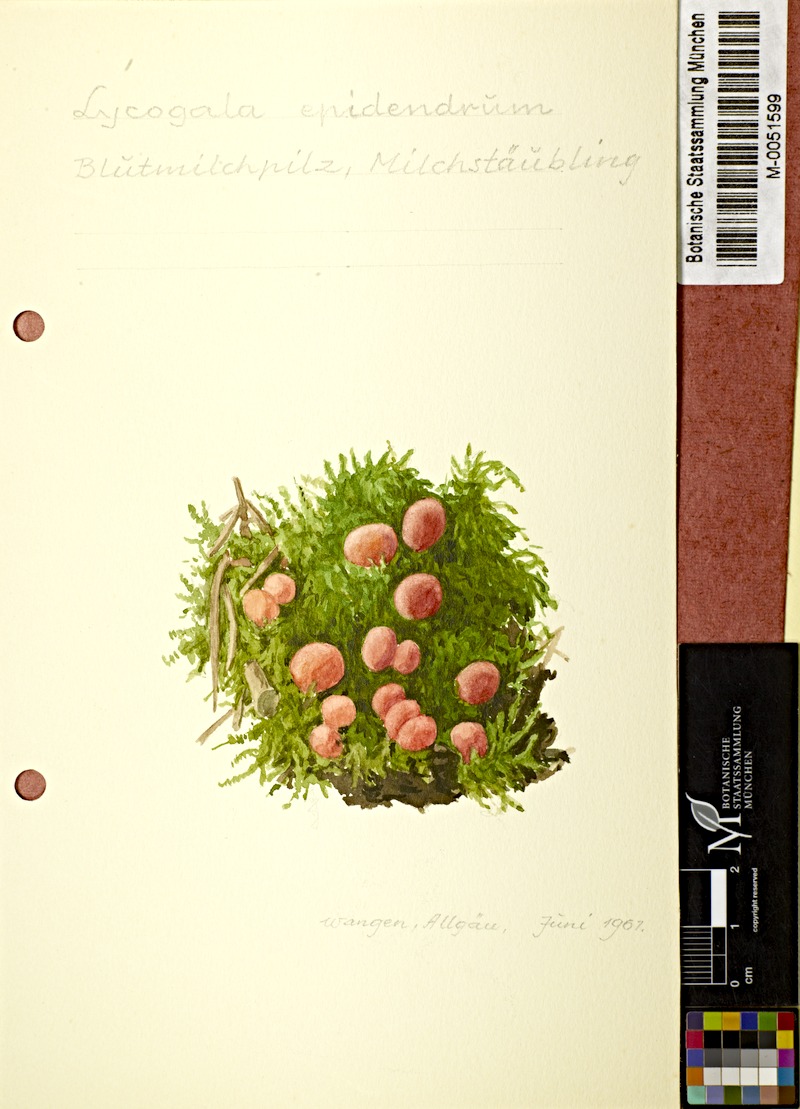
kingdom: Protozoa
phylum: Mycetozoa
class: Myxomycetes
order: Cribrariales
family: Tubiferaceae
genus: Lycogala
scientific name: Lycogala epidendrum
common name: Wolf's milk
